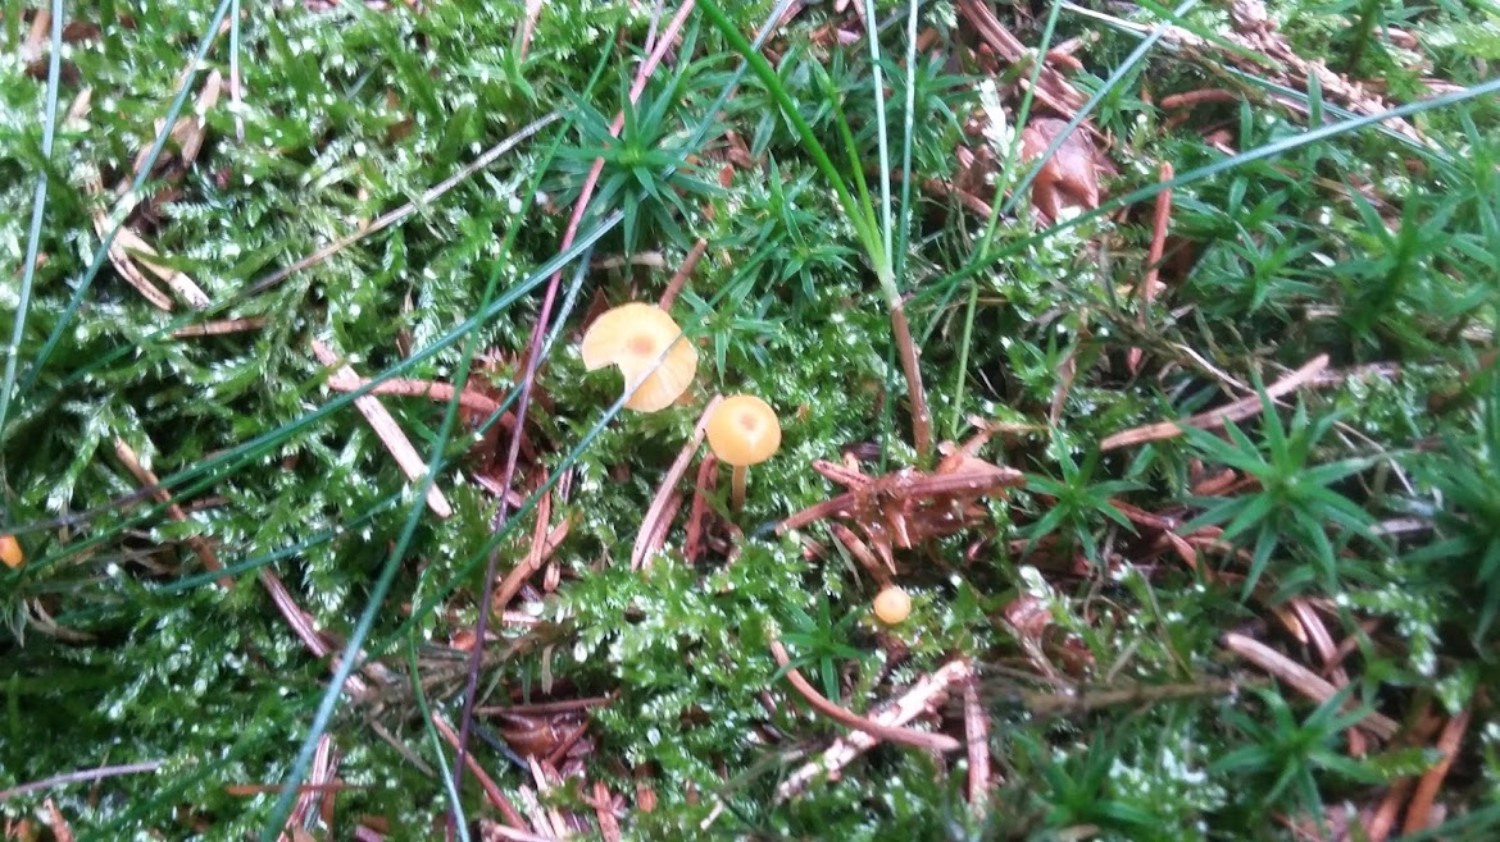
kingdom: Fungi
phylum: Basidiomycota
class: Agaricomycetes
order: Hymenochaetales
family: Rickenellaceae
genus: Rickenella
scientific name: Rickenella fibula
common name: orange mosnavlehat
